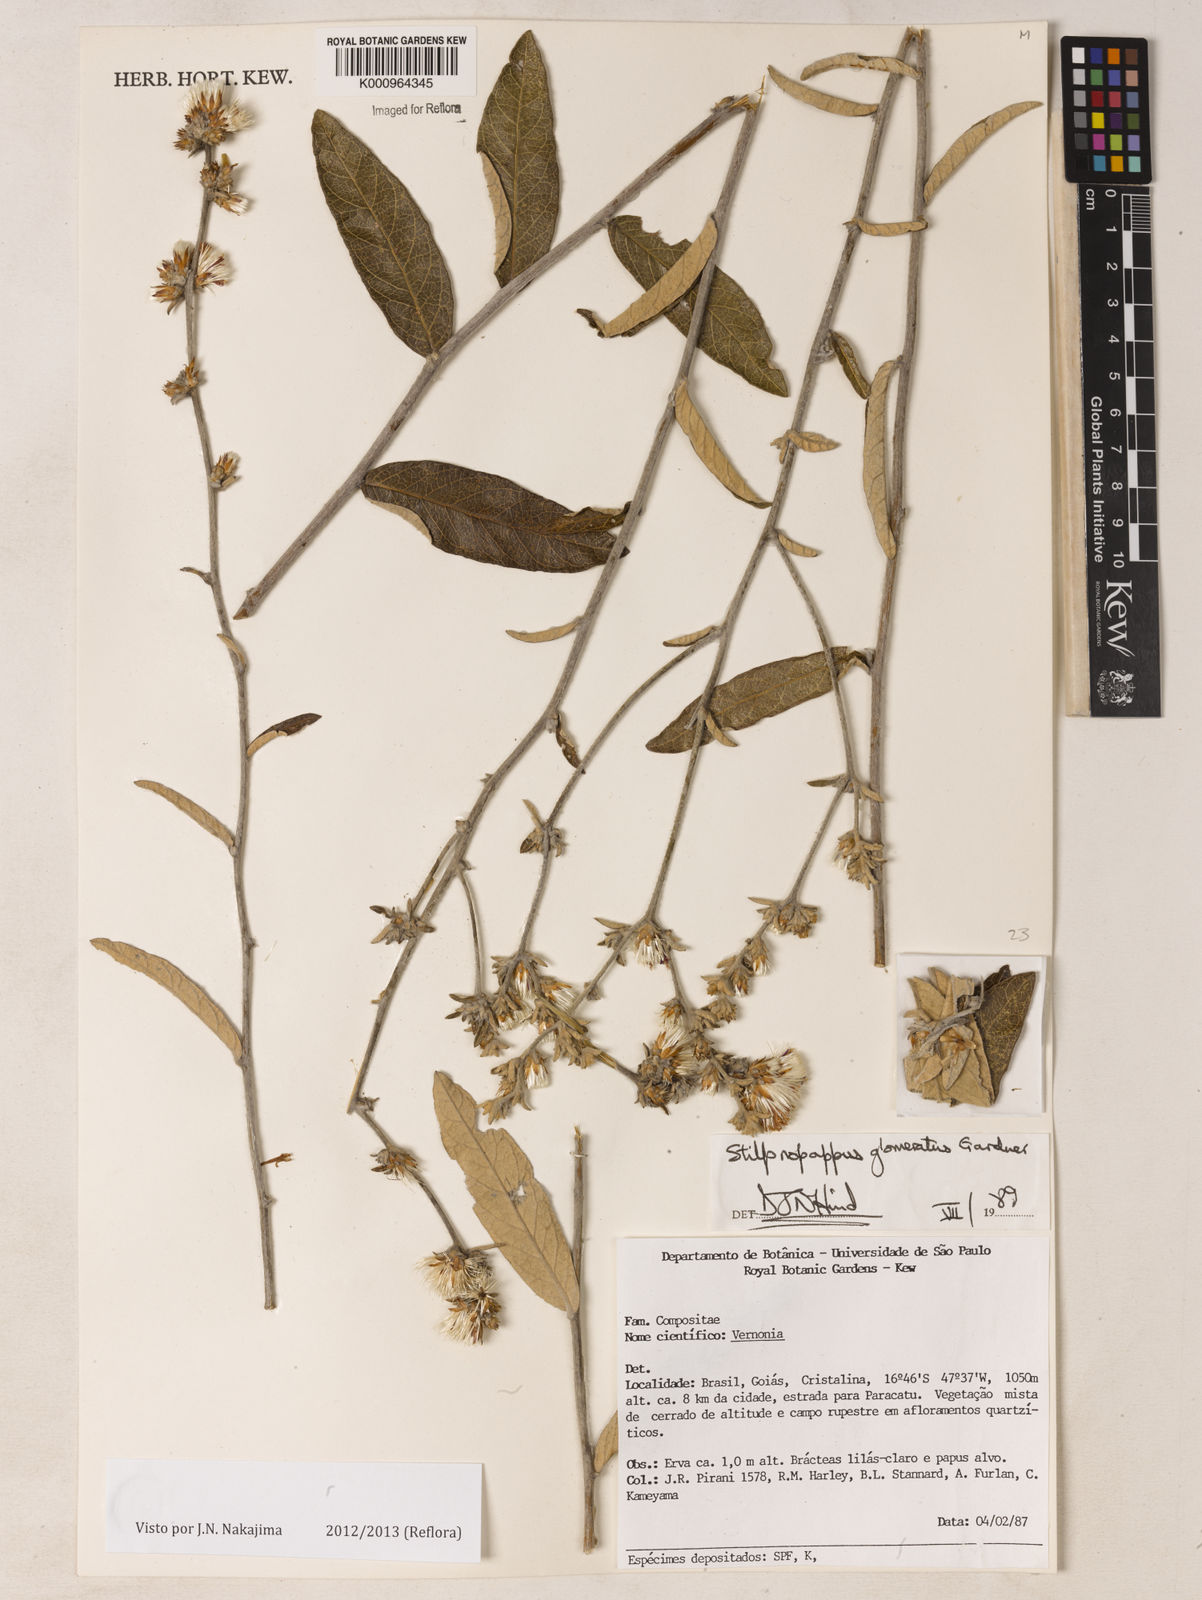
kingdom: Plantae
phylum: Tracheophyta
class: Magnoliopsida
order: Asterales
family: Asteraceae
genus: Stilpnopappus
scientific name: Stilpnopappus glomeratus
